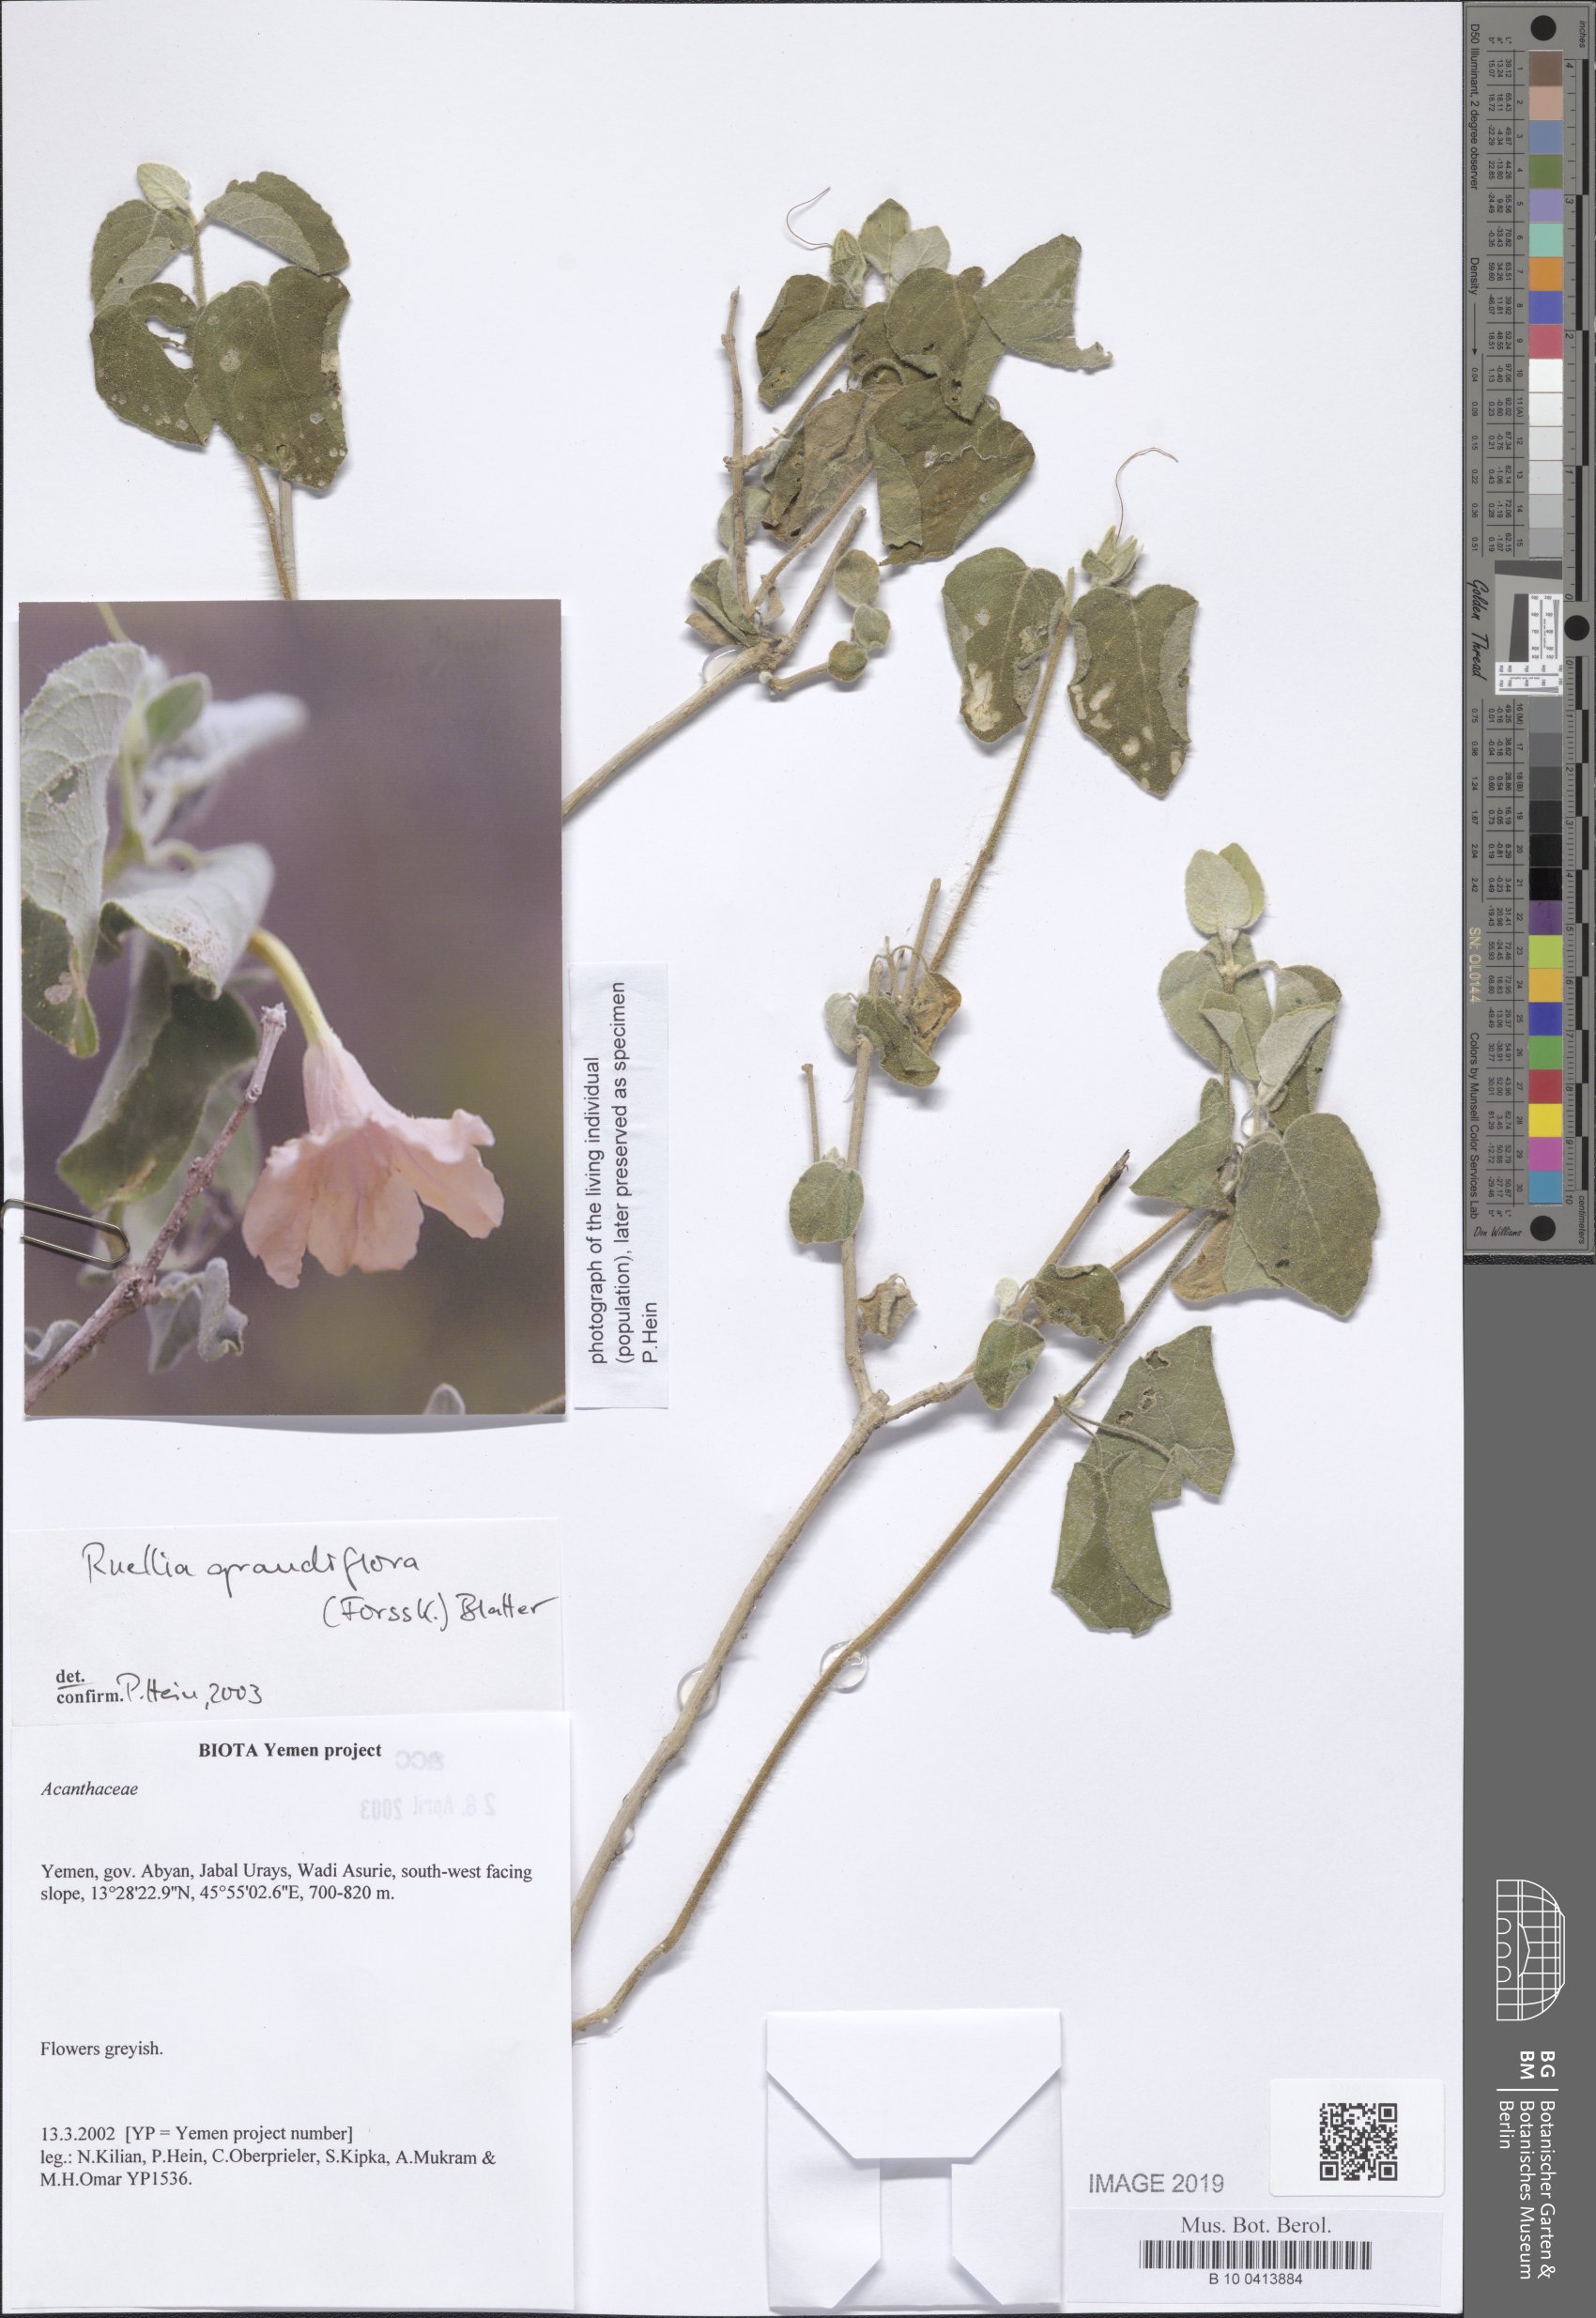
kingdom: Plantae
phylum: Tracheophyta
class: Magnoliopsida
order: Lamiales
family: Acanthaceae
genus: Ruellia
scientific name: Ruellia grandiflora
